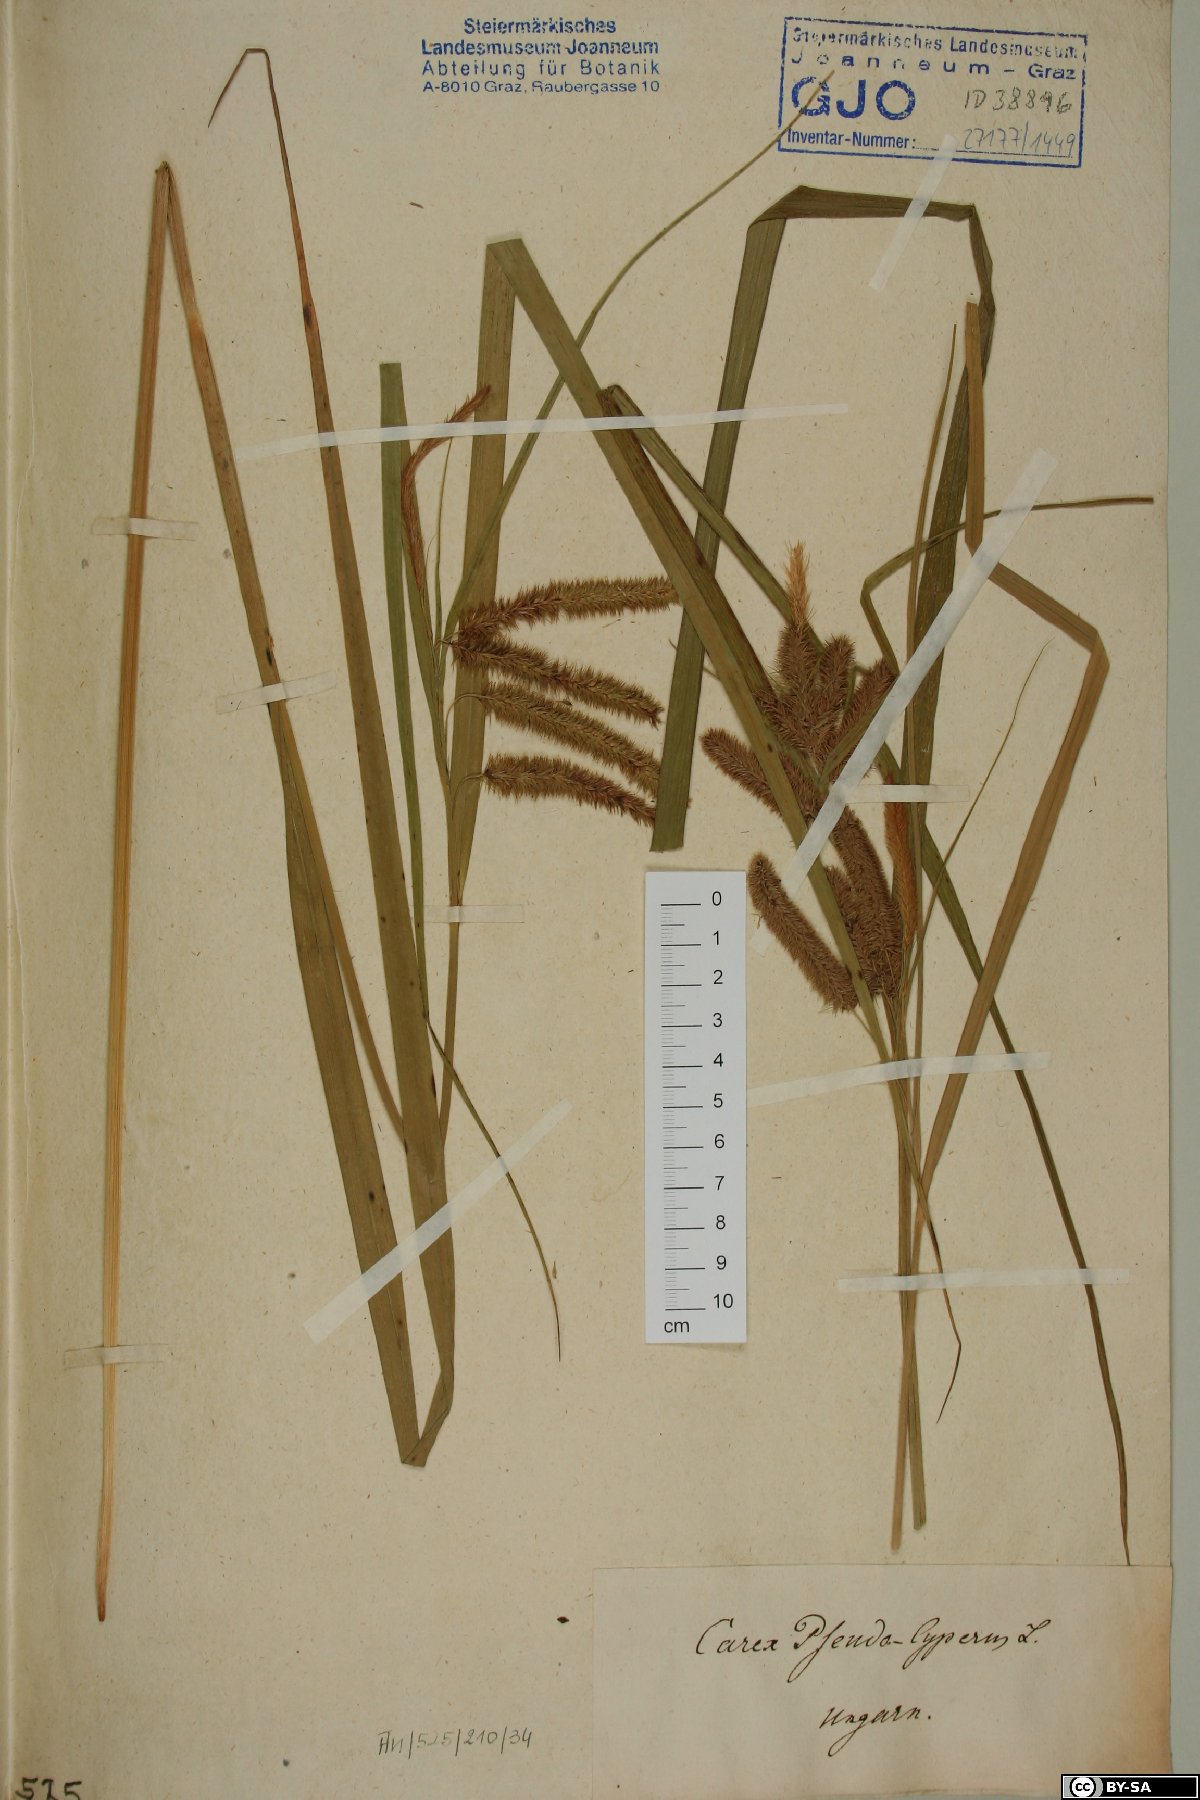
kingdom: Plantae
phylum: Tracheophyta
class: Liliopsida
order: Poales
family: Cyperaceae
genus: Carex
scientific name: Carex pseudocyperus
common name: Cyperus sedge
